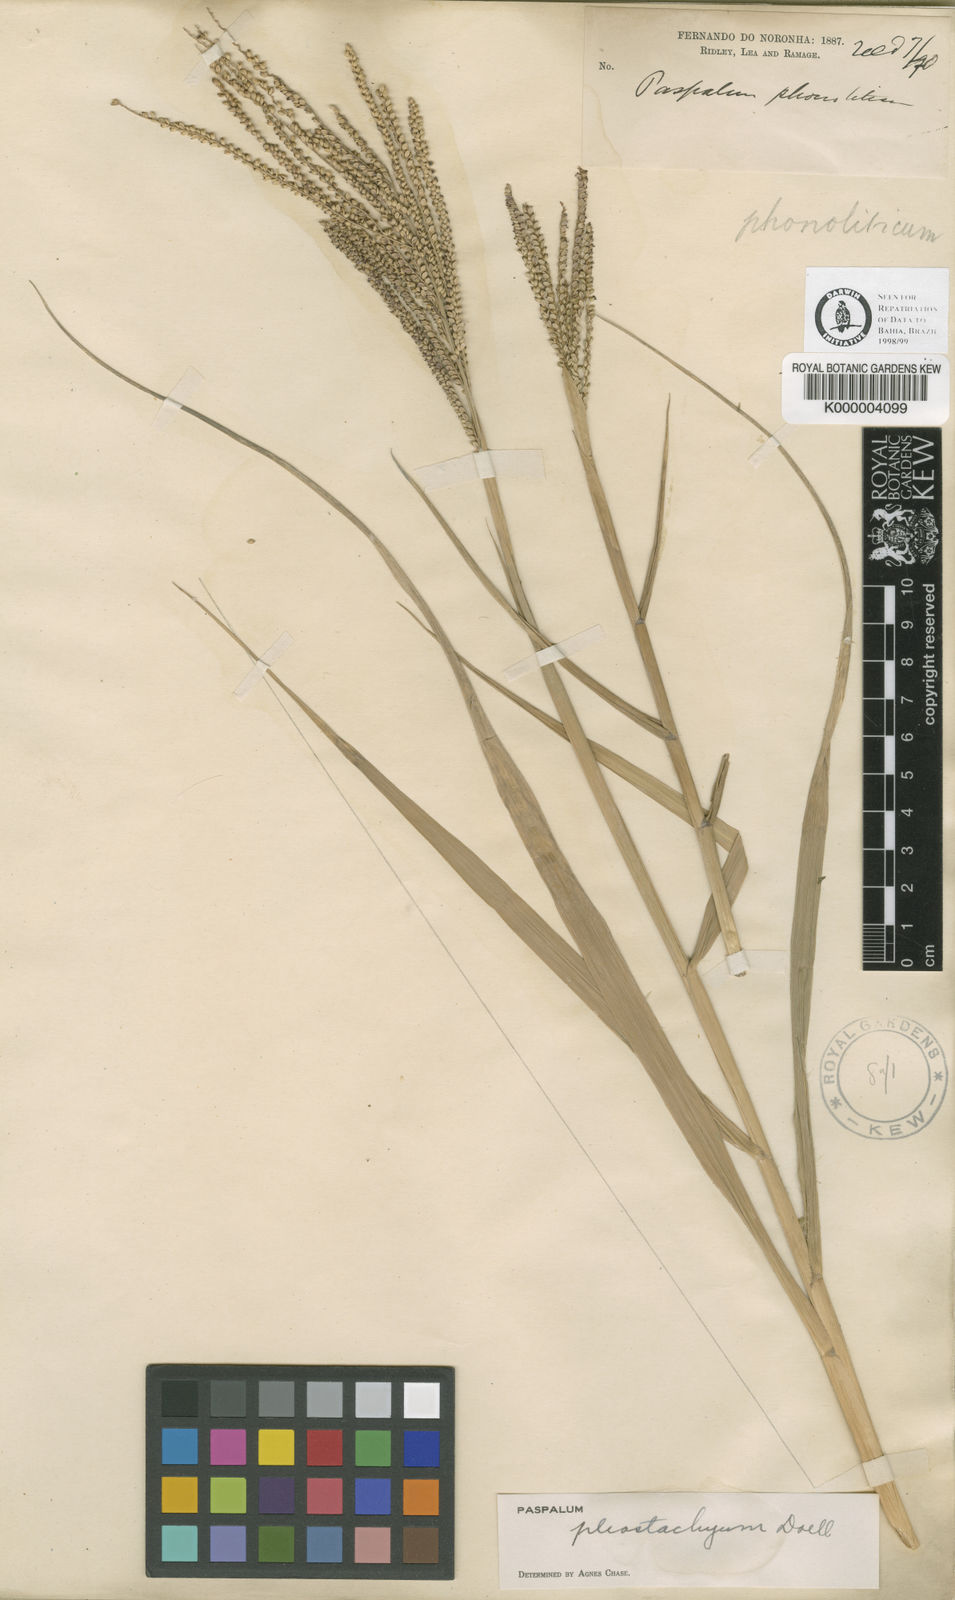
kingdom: Plantae
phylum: Tracheophyta
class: Liliopsida
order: Poales
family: Poaceae
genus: Paspalum
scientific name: Paspalum
